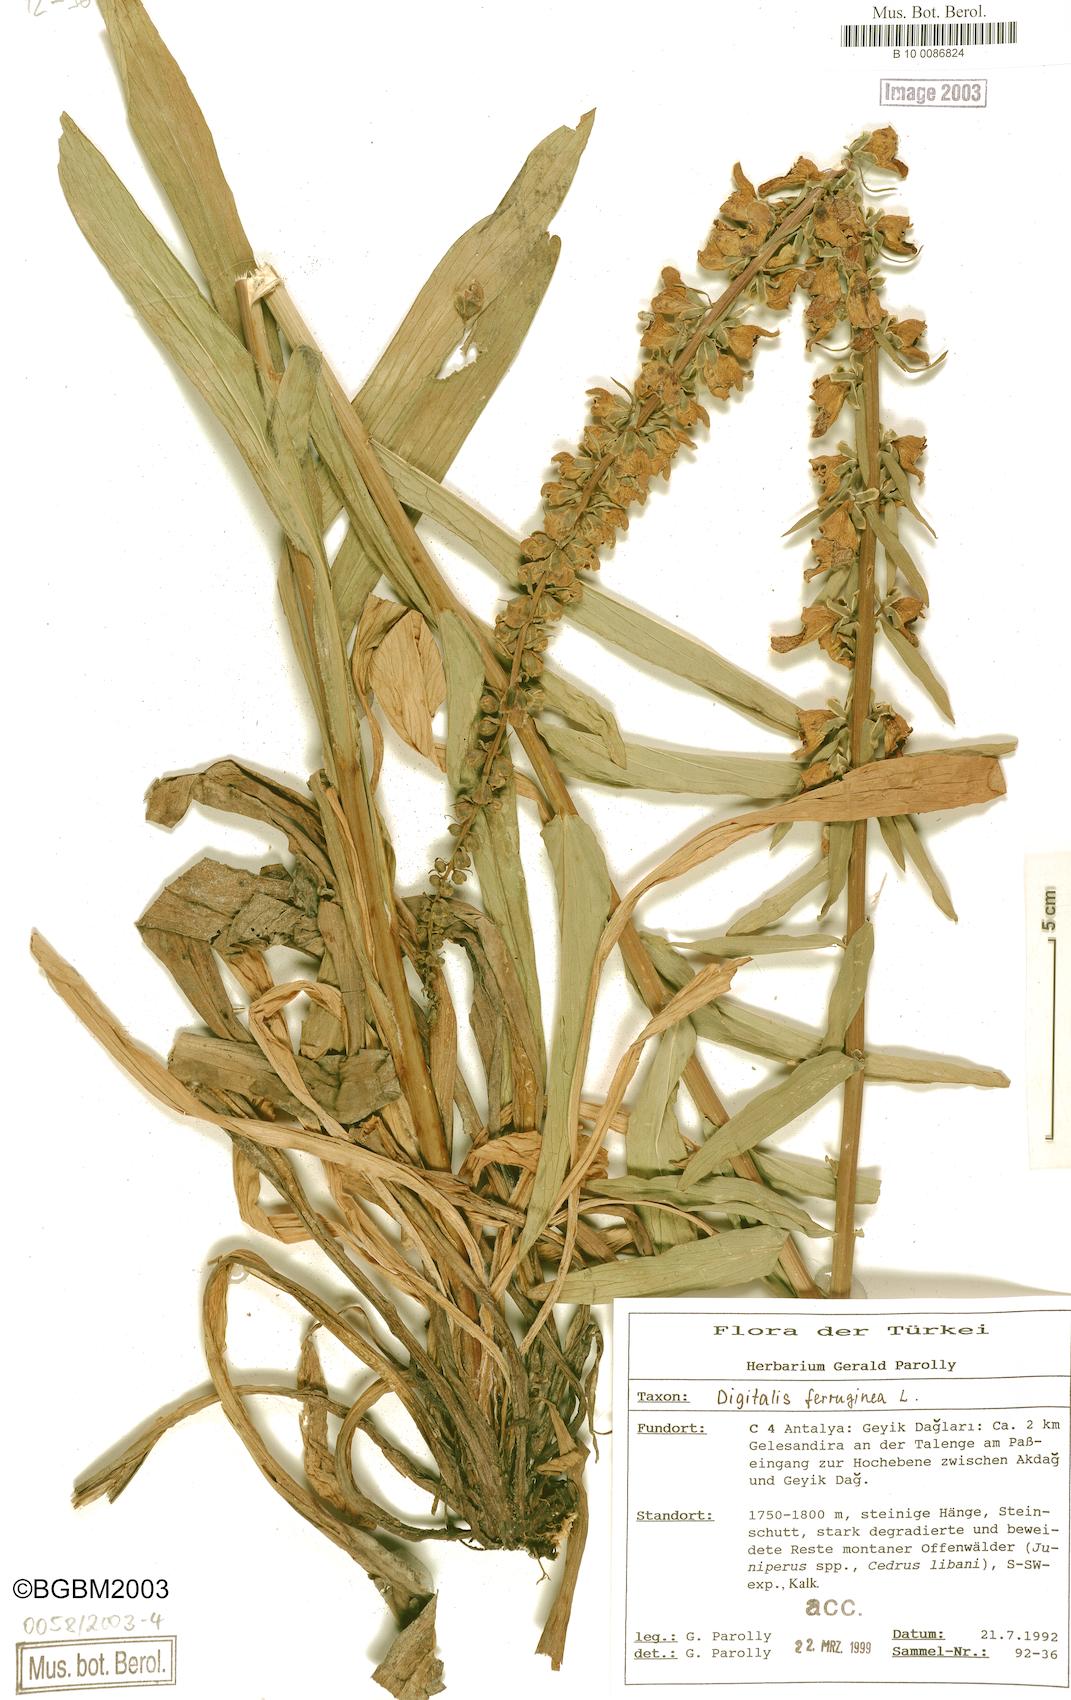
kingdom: Plantae
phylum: Tracheophyta
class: Magnoliopsida
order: Lamiales
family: Plantaginaceae
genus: Digitalis
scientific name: Digitalis ferruginea
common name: Rusty foxglove
